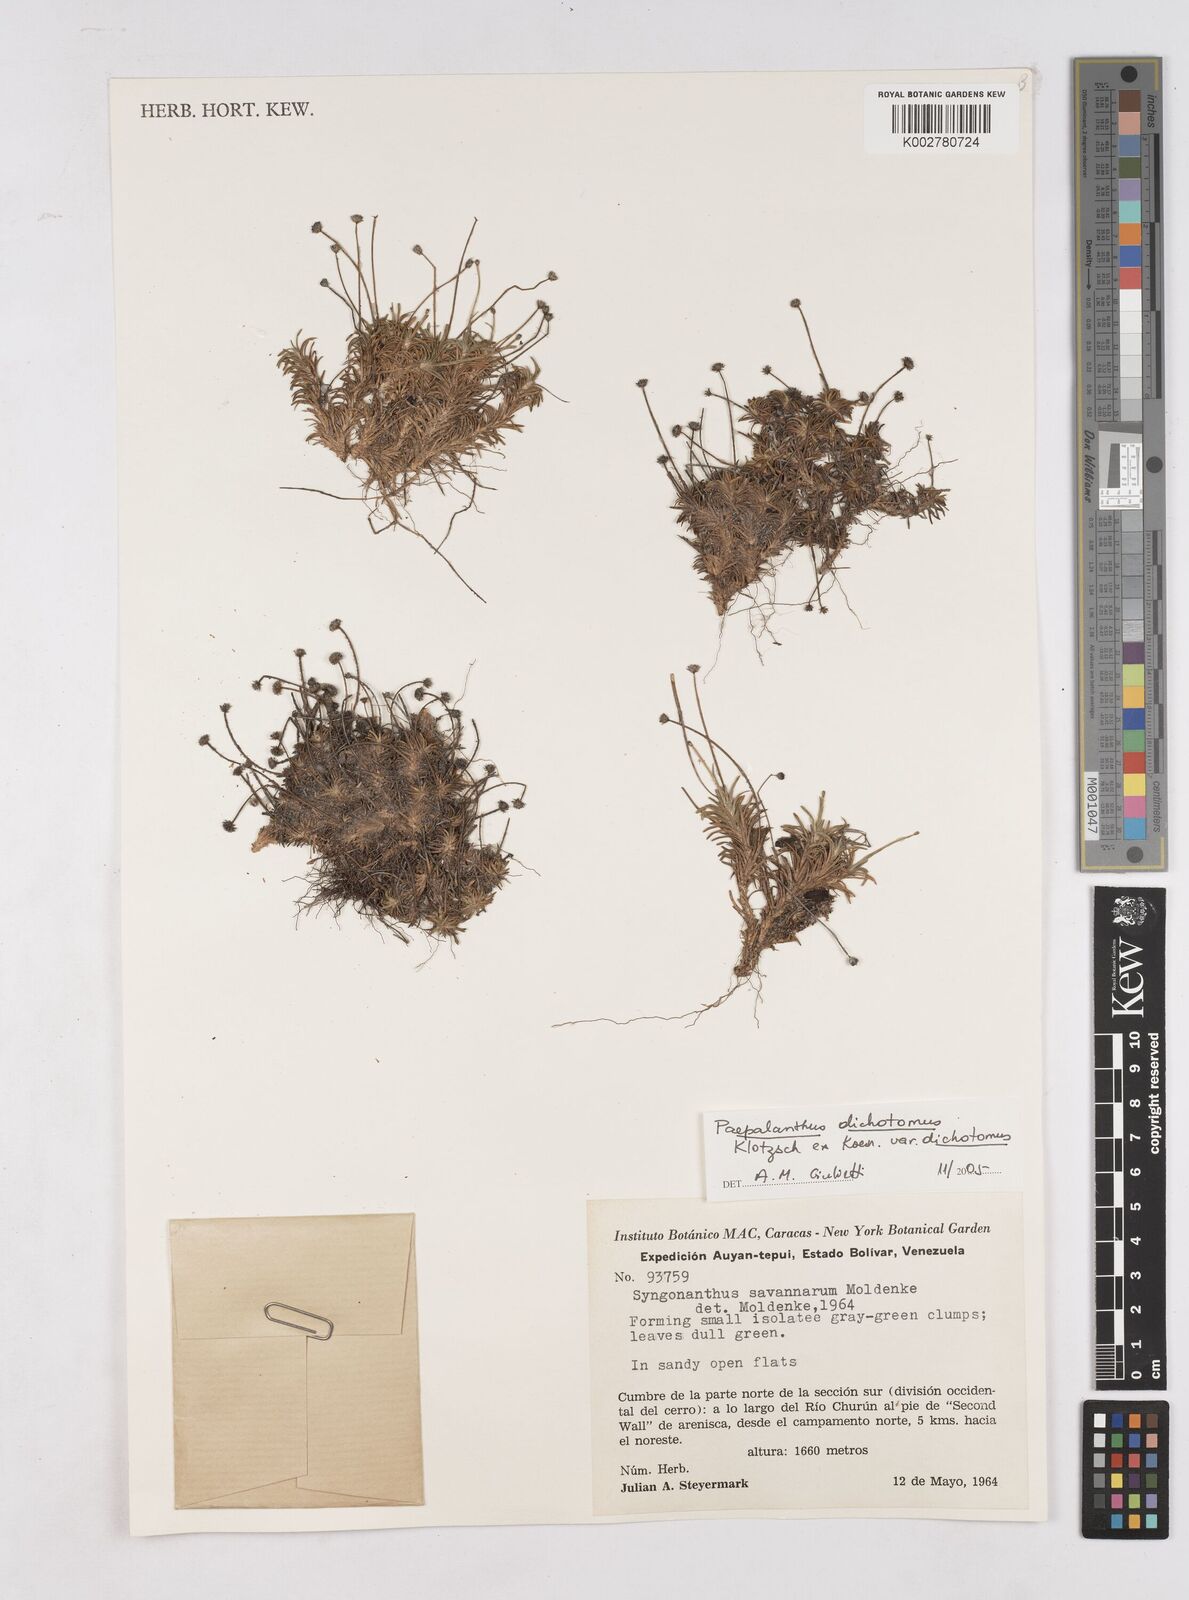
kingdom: Plantae
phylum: Tracheophyta
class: Liliopsida
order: Poales
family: Eriocaulaceae
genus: Paepalanthus
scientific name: Paepalanthus dichotomus
